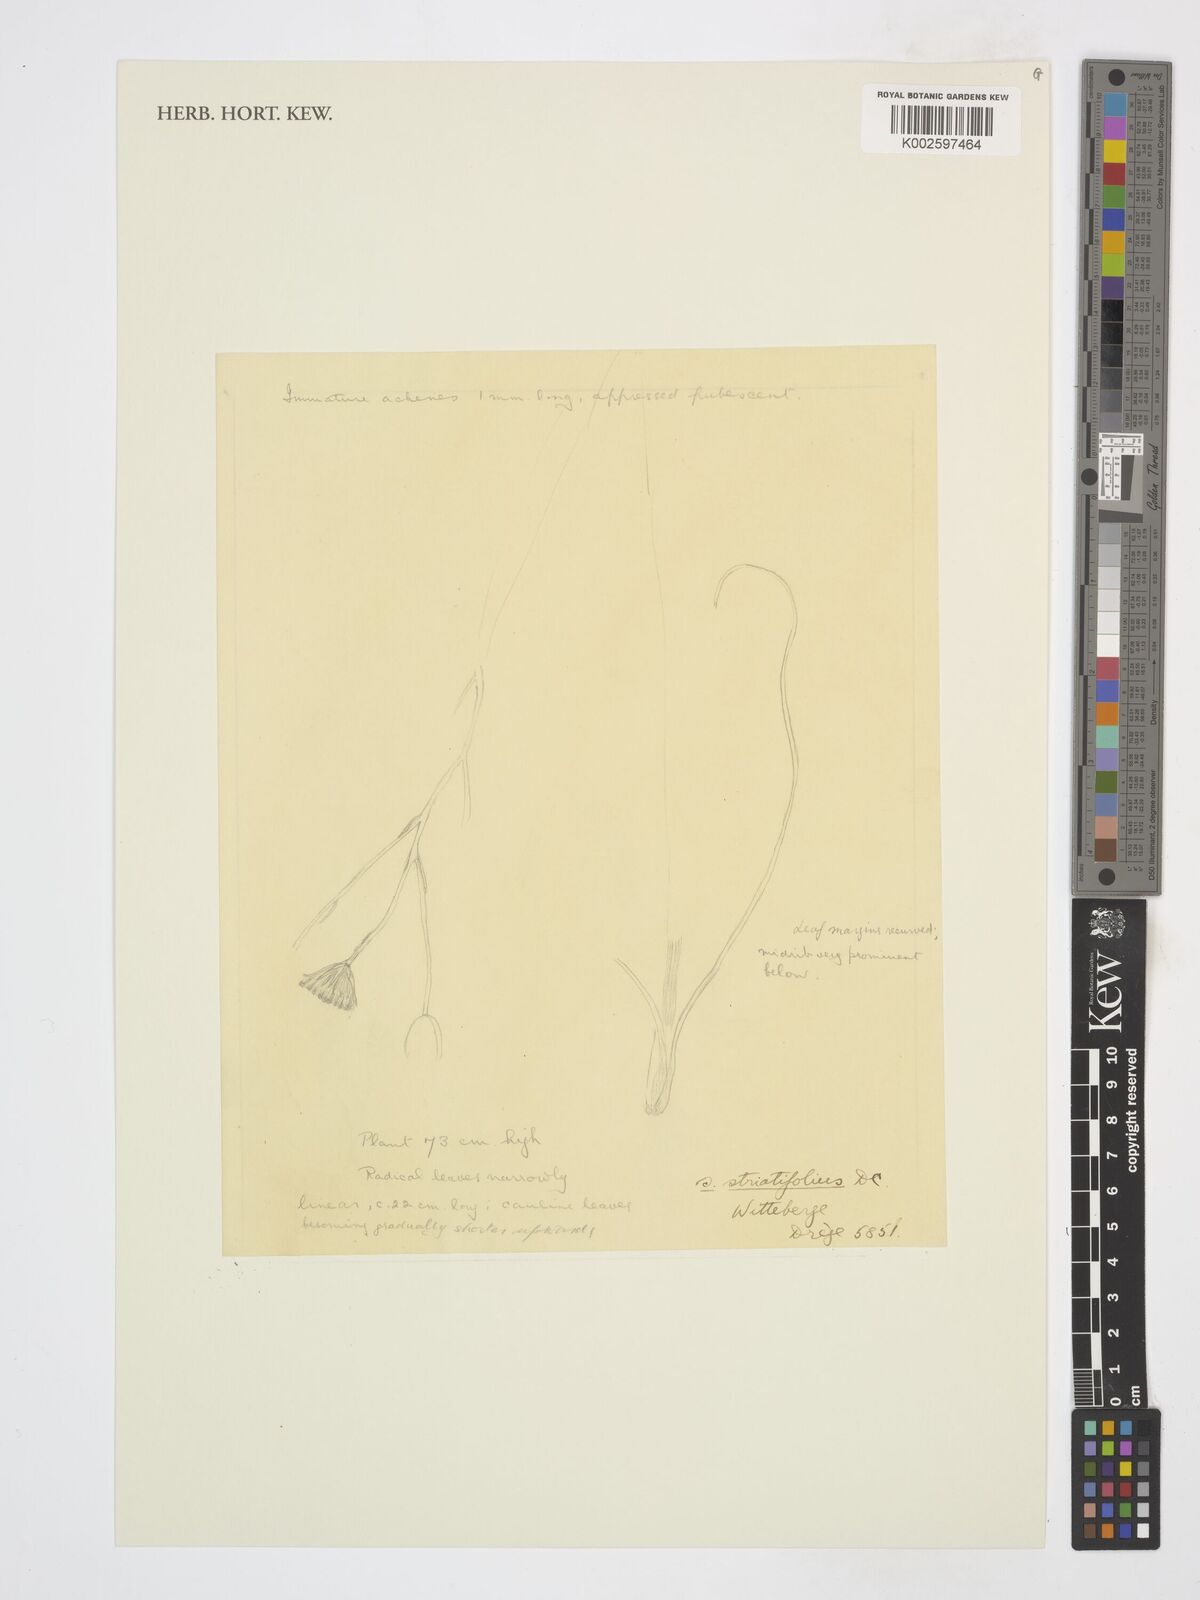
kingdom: Plantae
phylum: Tracheophyta
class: Magnoliopsida
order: Asterales
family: Asteraceae
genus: Senecio
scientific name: Senecio striatifolius
